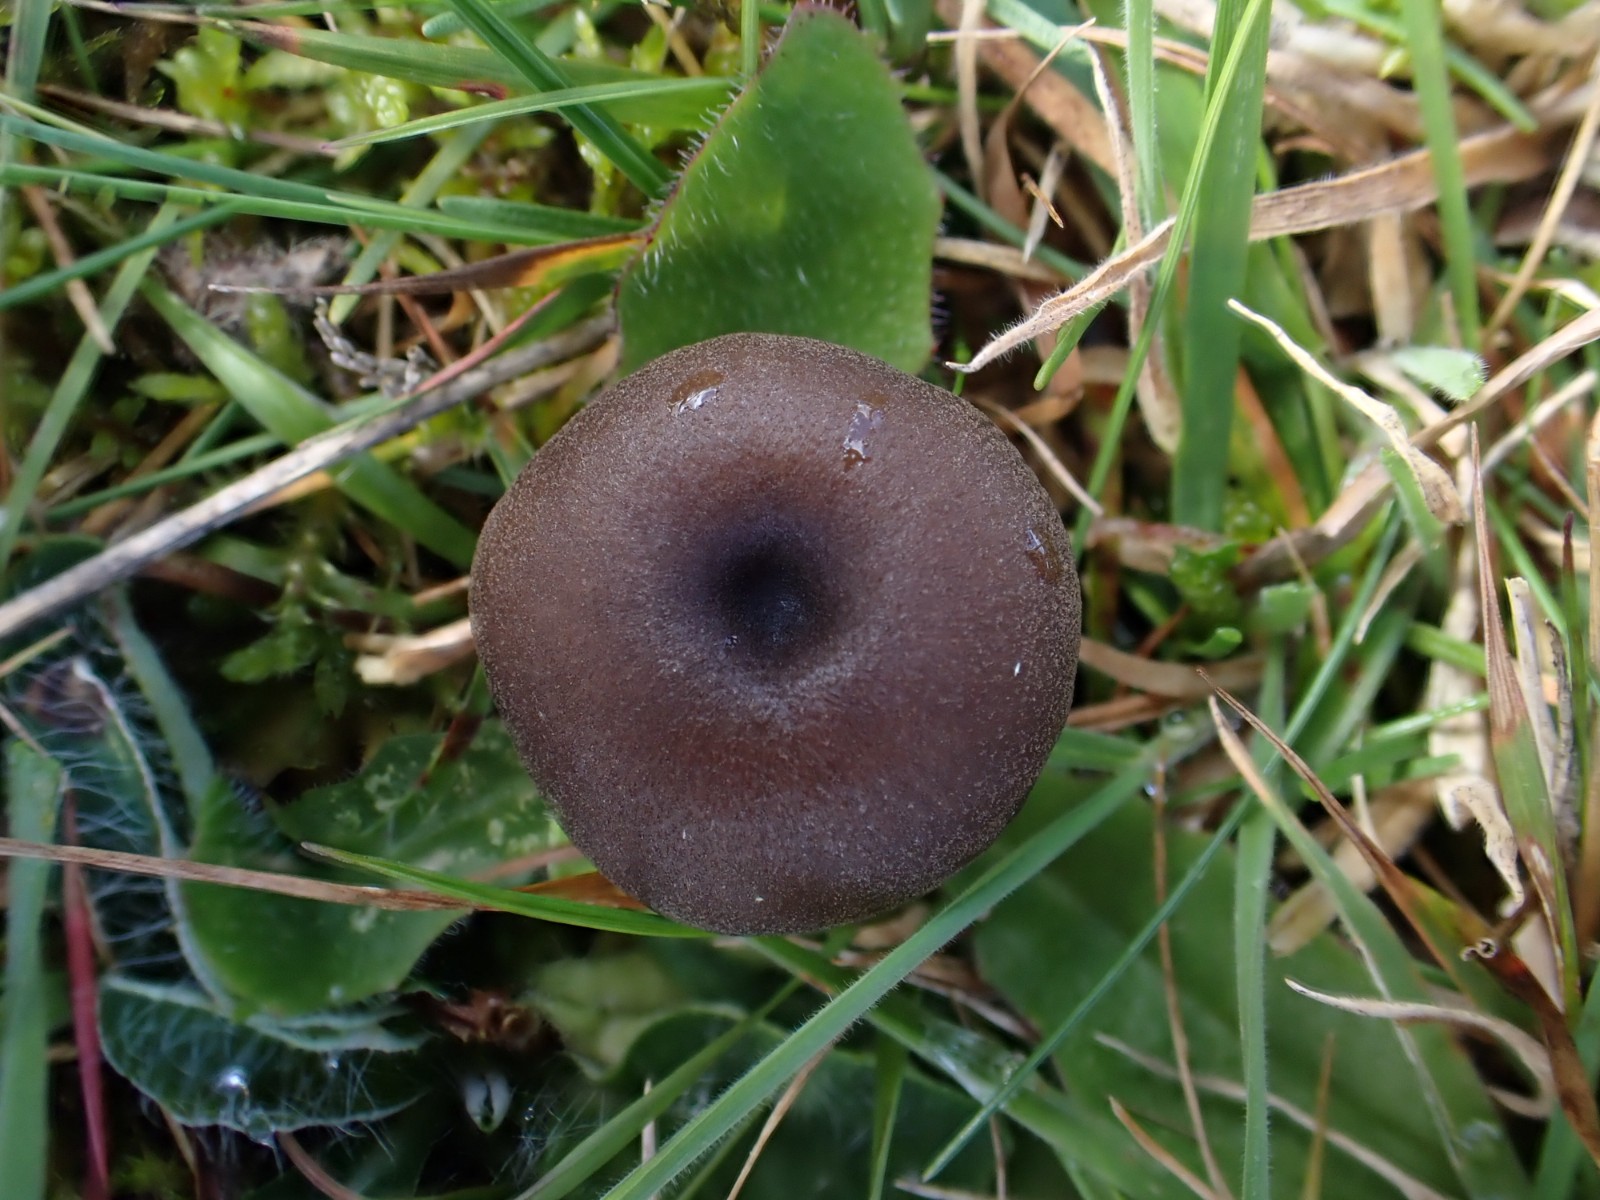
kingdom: Fungi
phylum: Basidiomycota
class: Agaricomycetes
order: Agaricales
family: Entolomataceae
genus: Entoloma
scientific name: Entoloma caesiocinctum
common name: Blue-girdled pinkgill
